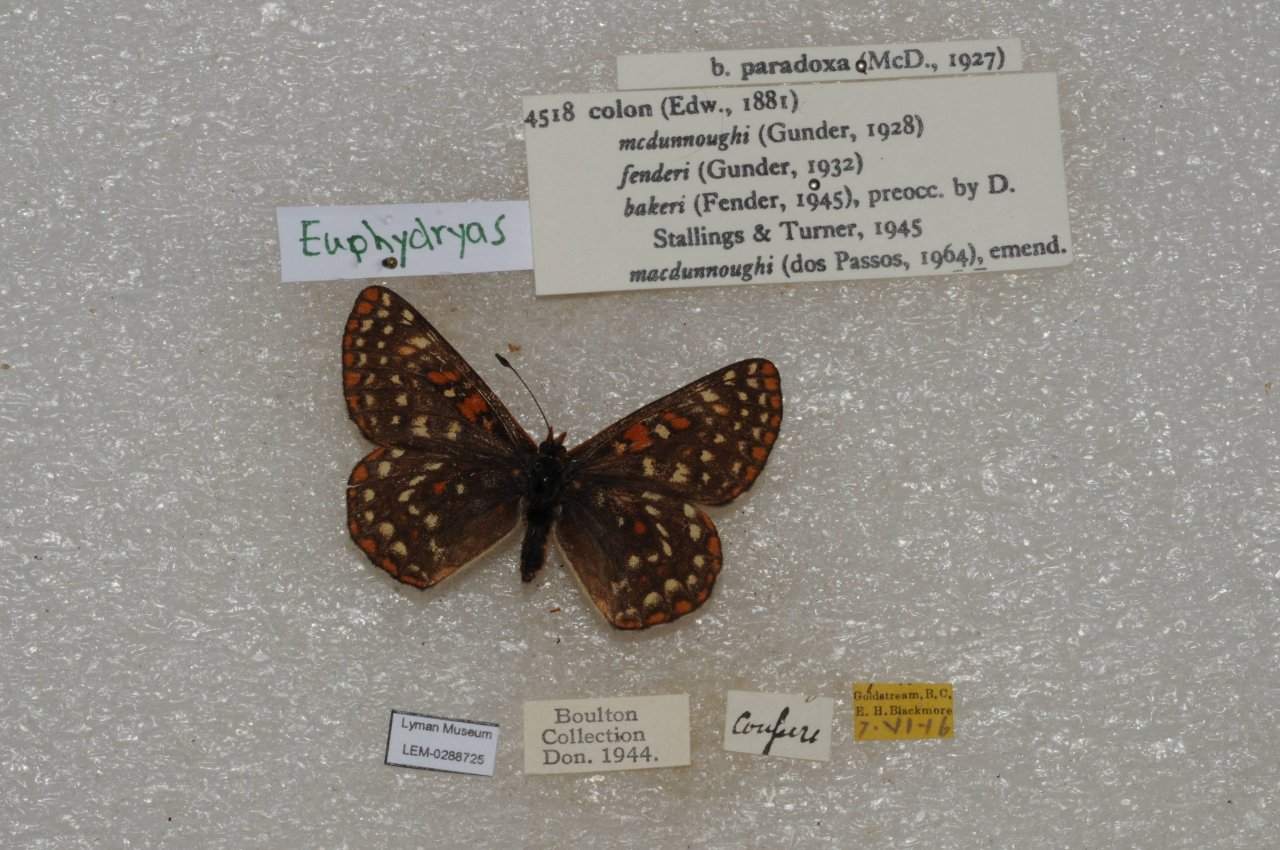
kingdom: Animalia
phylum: Arthropoda
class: Insecta
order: Lepidoptera
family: Nymphalidae
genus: Occidryas
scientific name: Occidryas colon
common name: Snowberry Checkerspot
